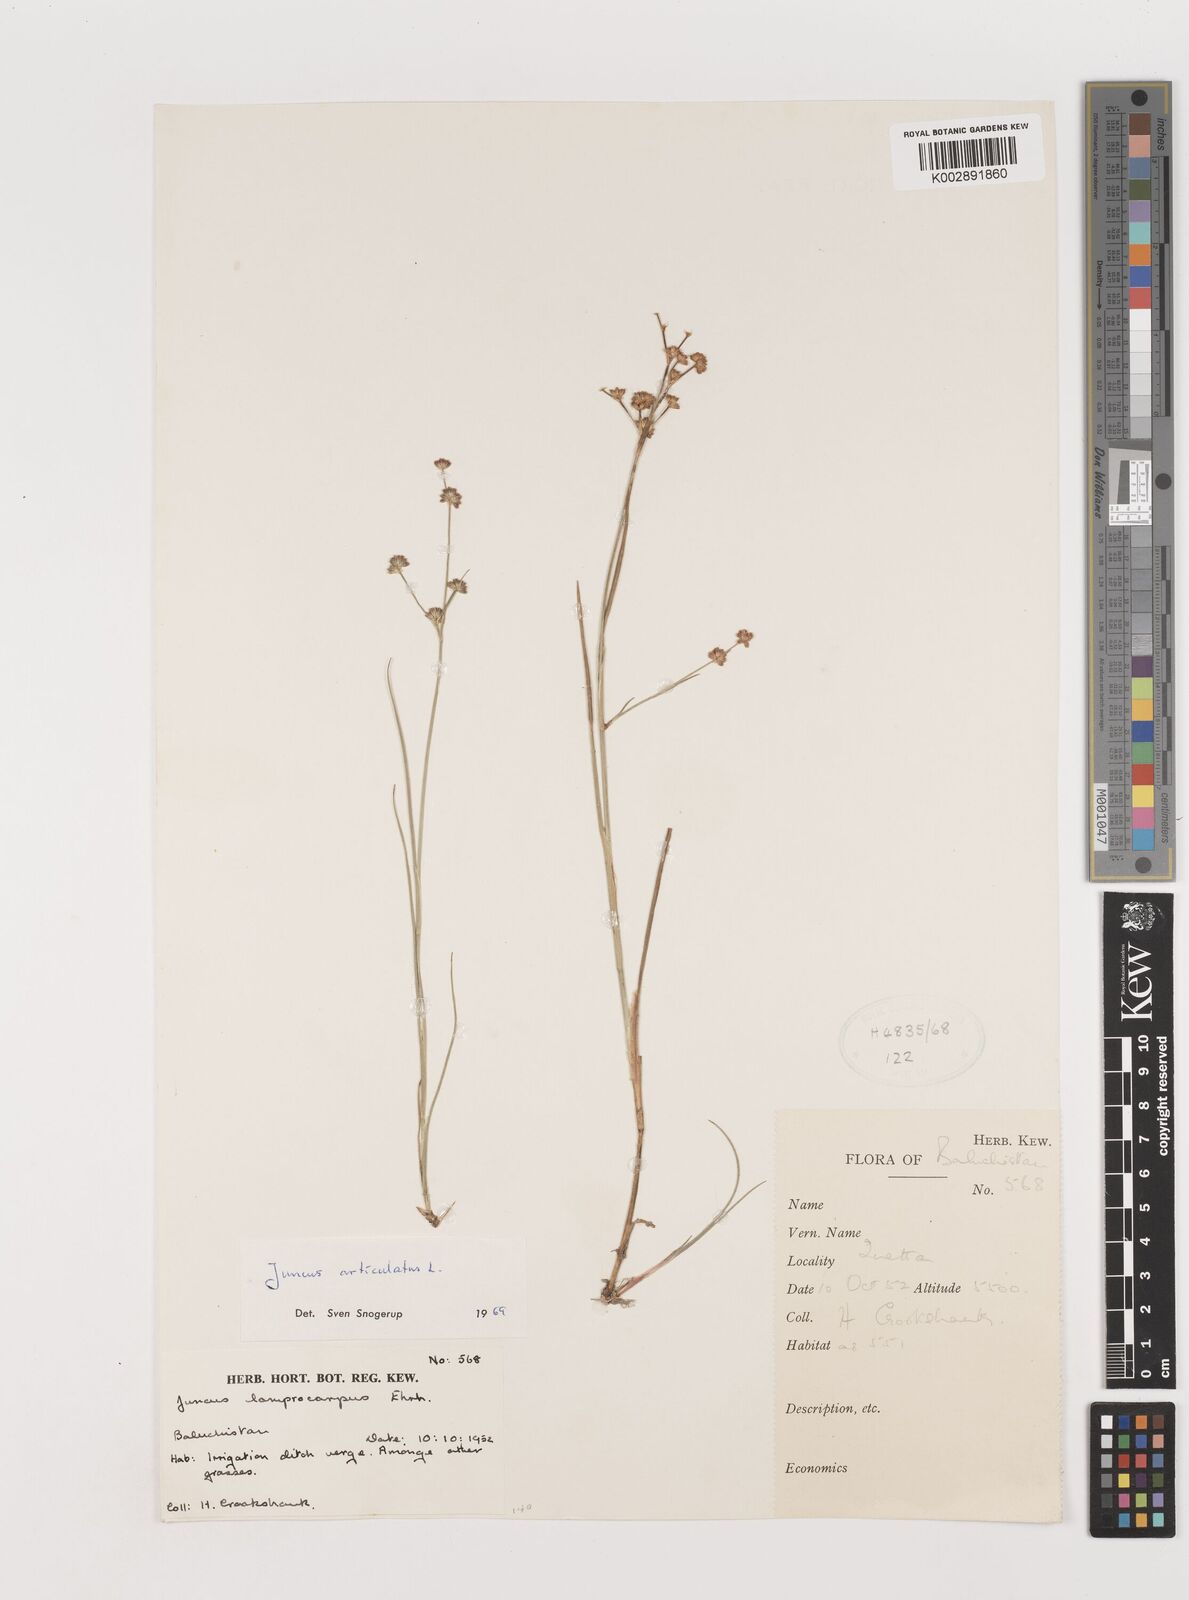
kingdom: Plantae
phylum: Tracheophyta
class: Liliopsida
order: Poales
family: Juncaceae
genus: Juncus
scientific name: Juncus articulatus
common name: Jointed rush
